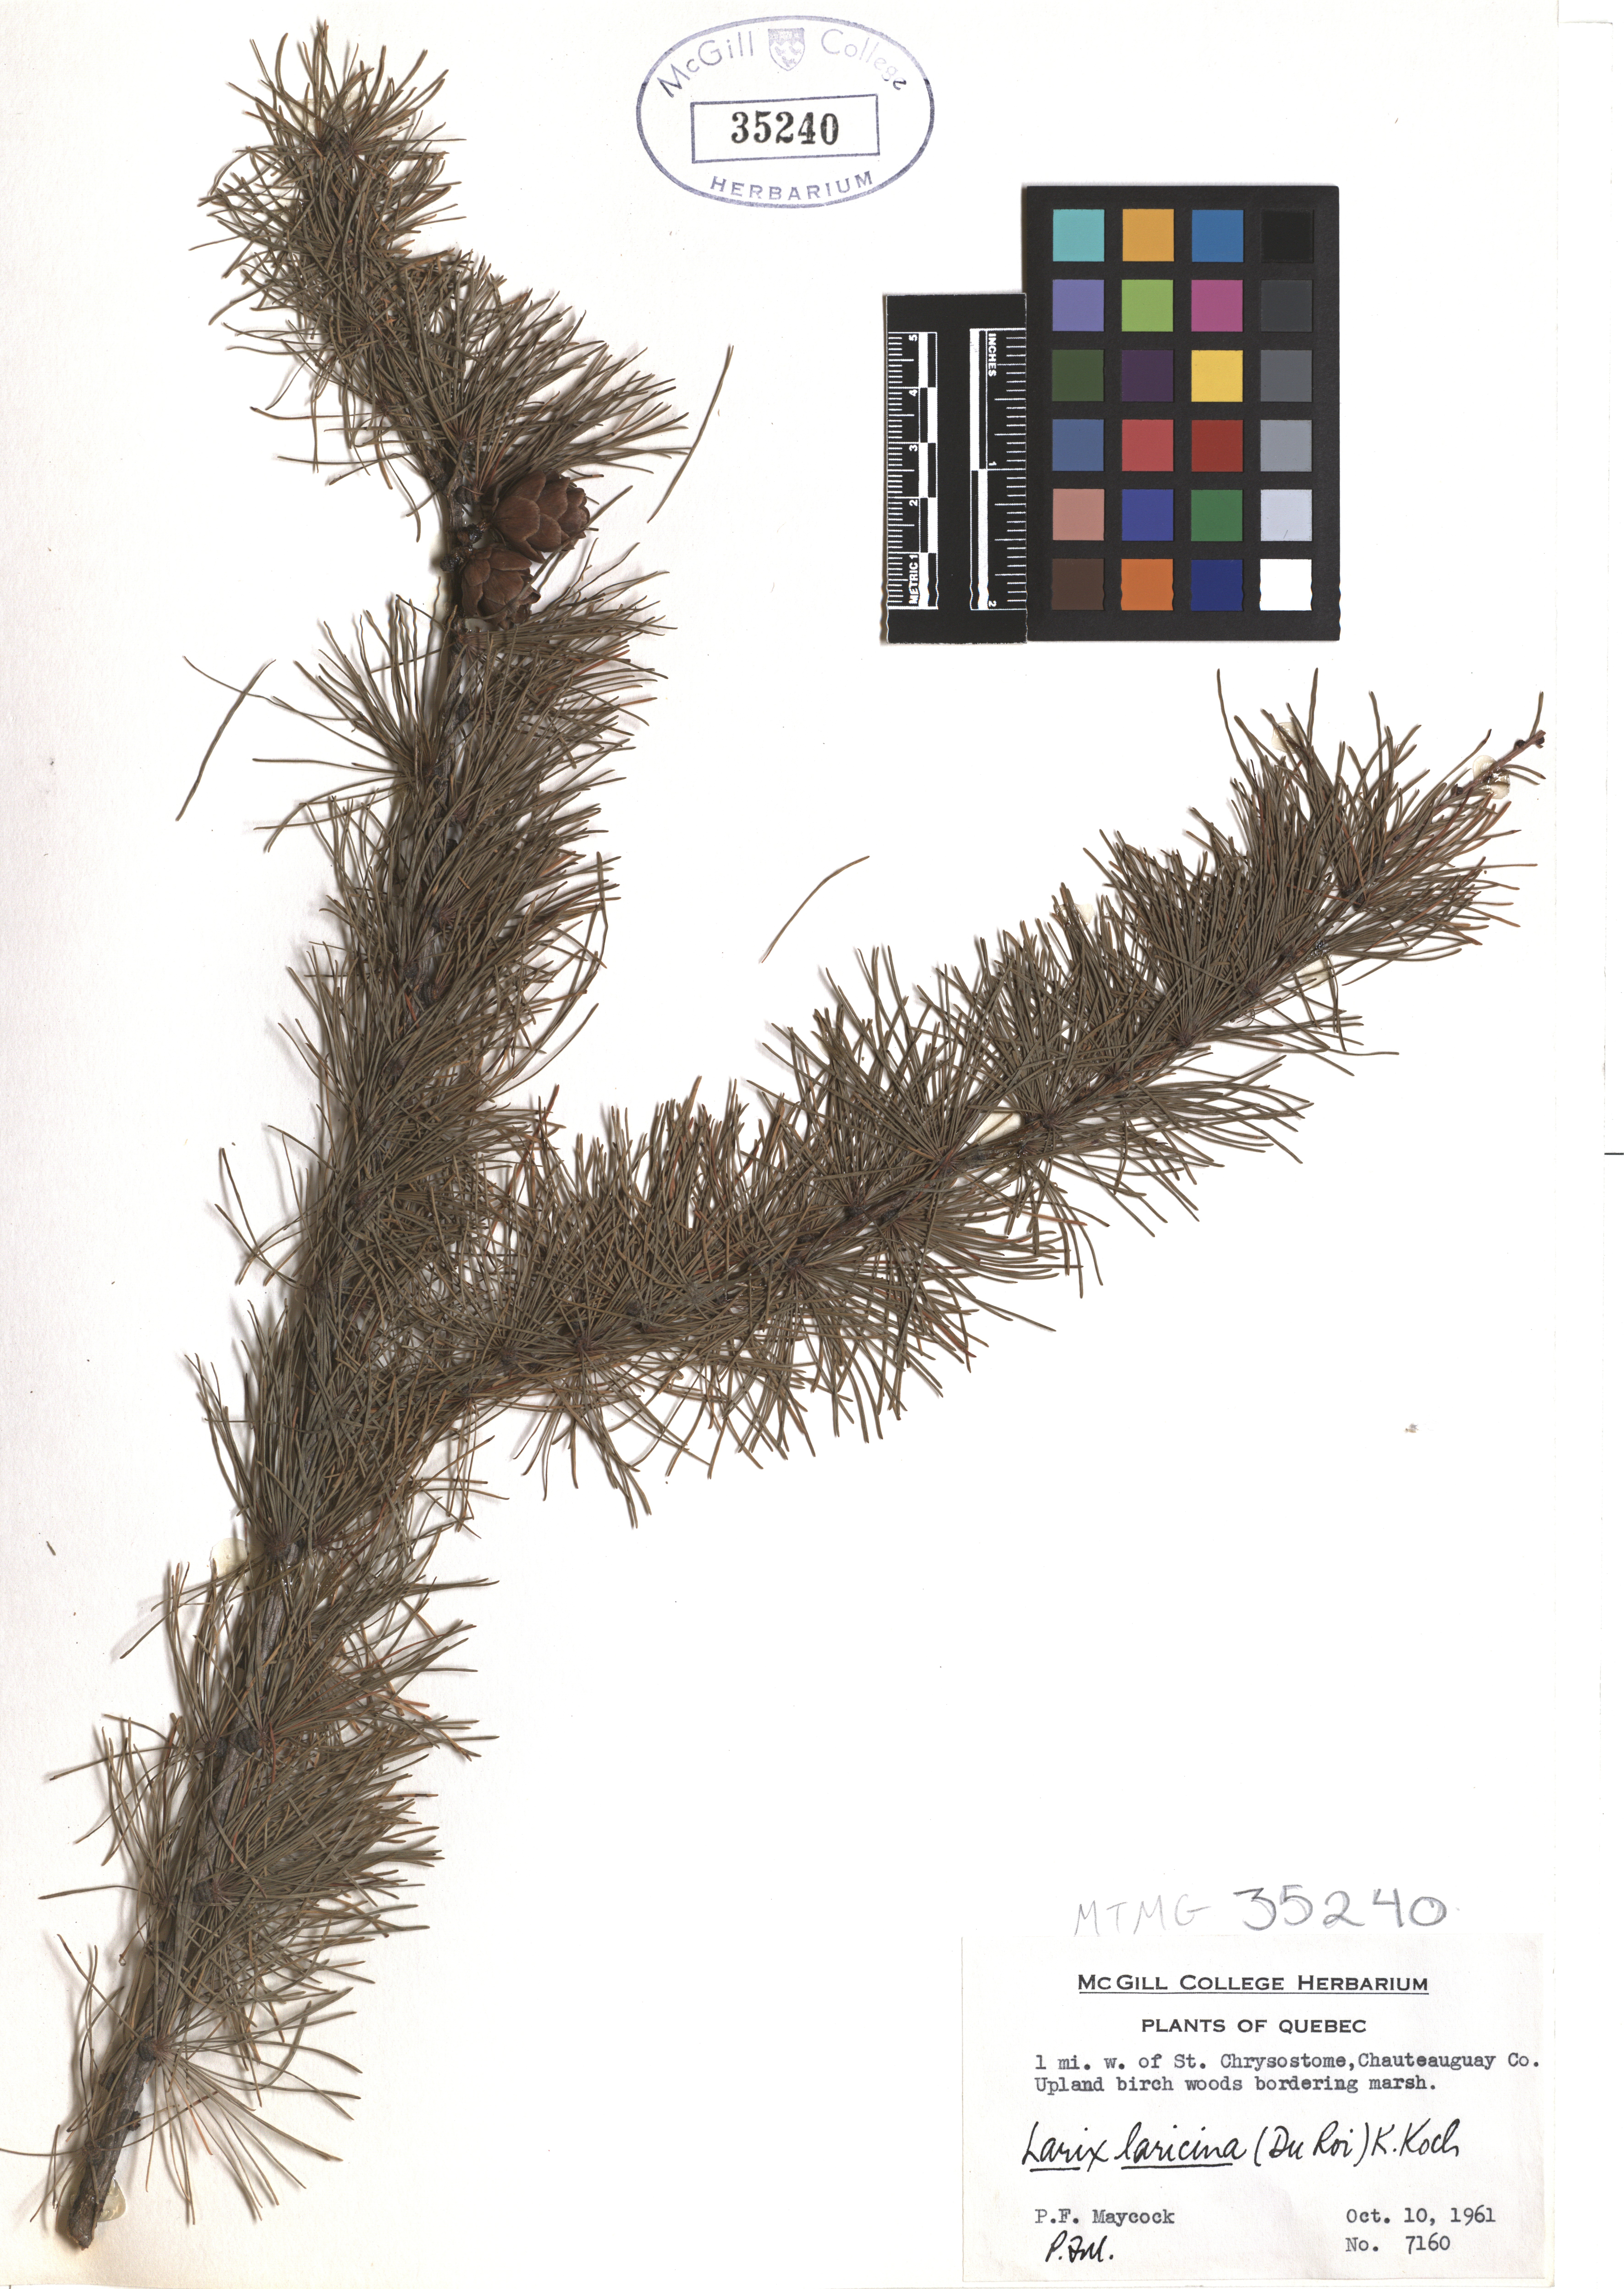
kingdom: Plantae
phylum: Tracheophyta
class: Pinopsida
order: Pinales
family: Pinaceae
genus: Larix
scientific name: Larix laricina
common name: American larch
